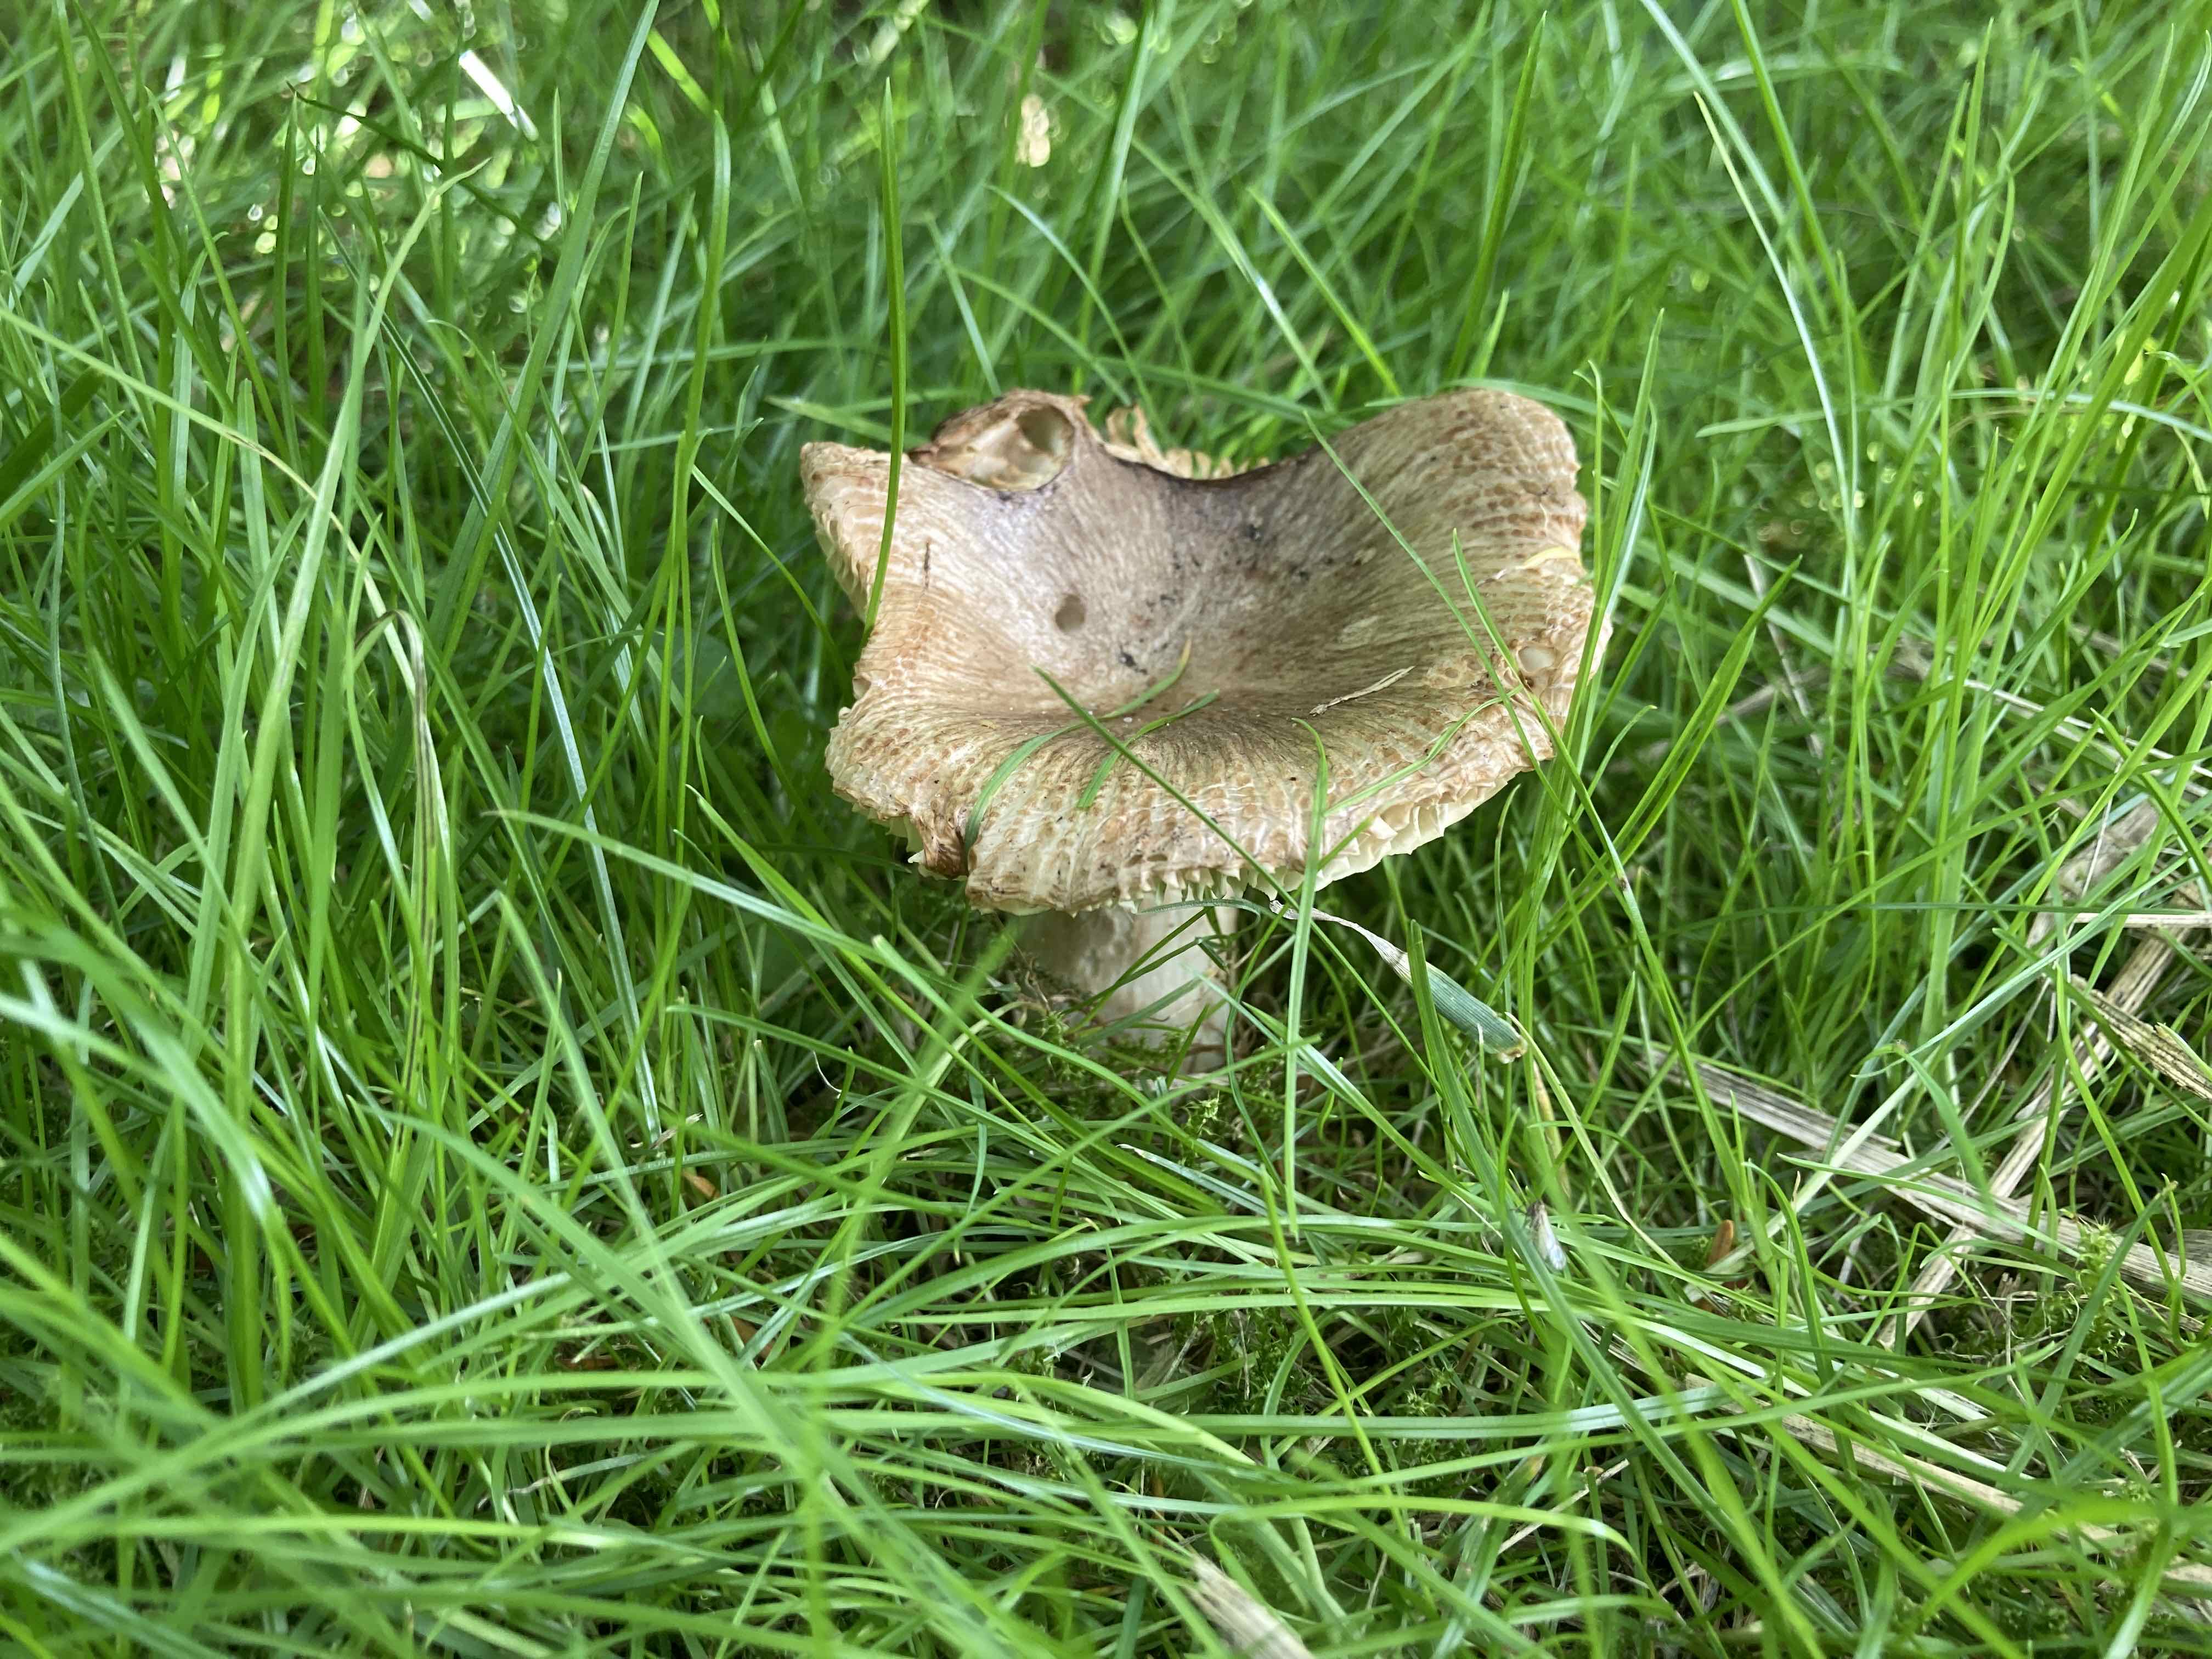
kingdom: Fungi
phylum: Basidiomycota
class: Agaricomycetes
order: Russulales
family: Russulaceae
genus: Russula
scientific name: Russula
